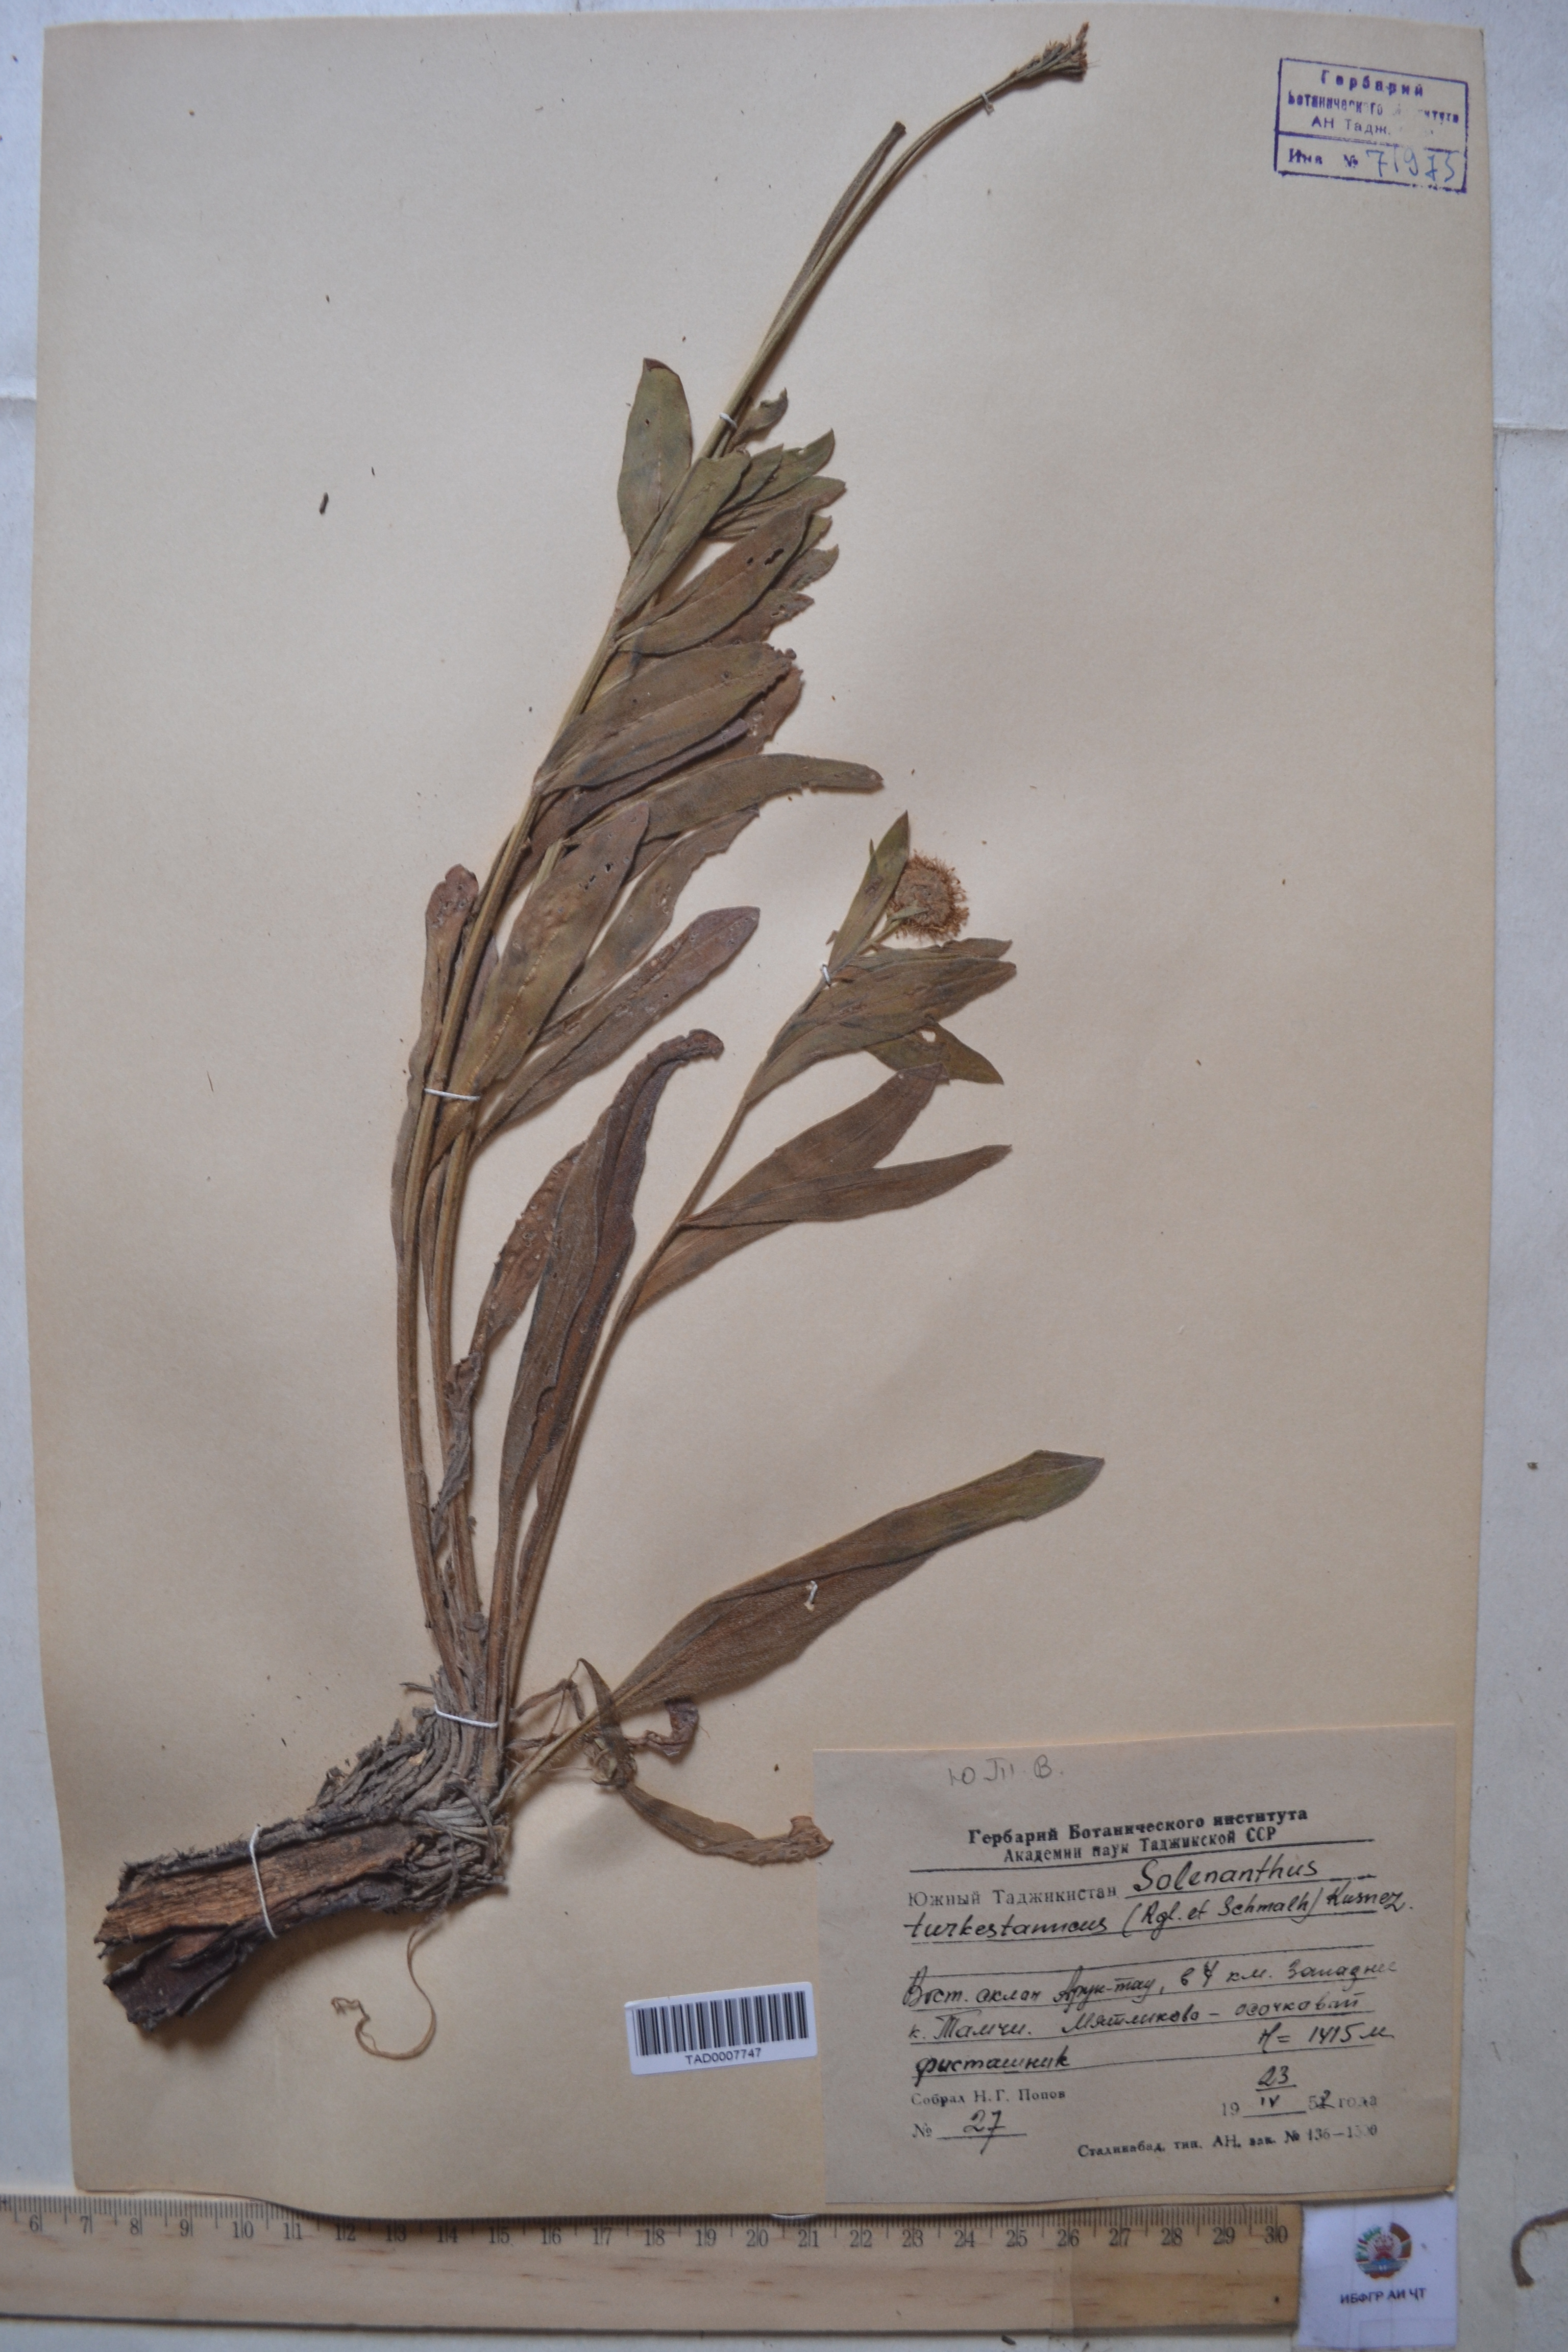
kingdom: Plantae
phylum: Tracheophyta
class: Magnoliopsida
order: Boraginales
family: Boraginaceae
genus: Solenanthus
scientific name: Solenanthus turkestanicus
